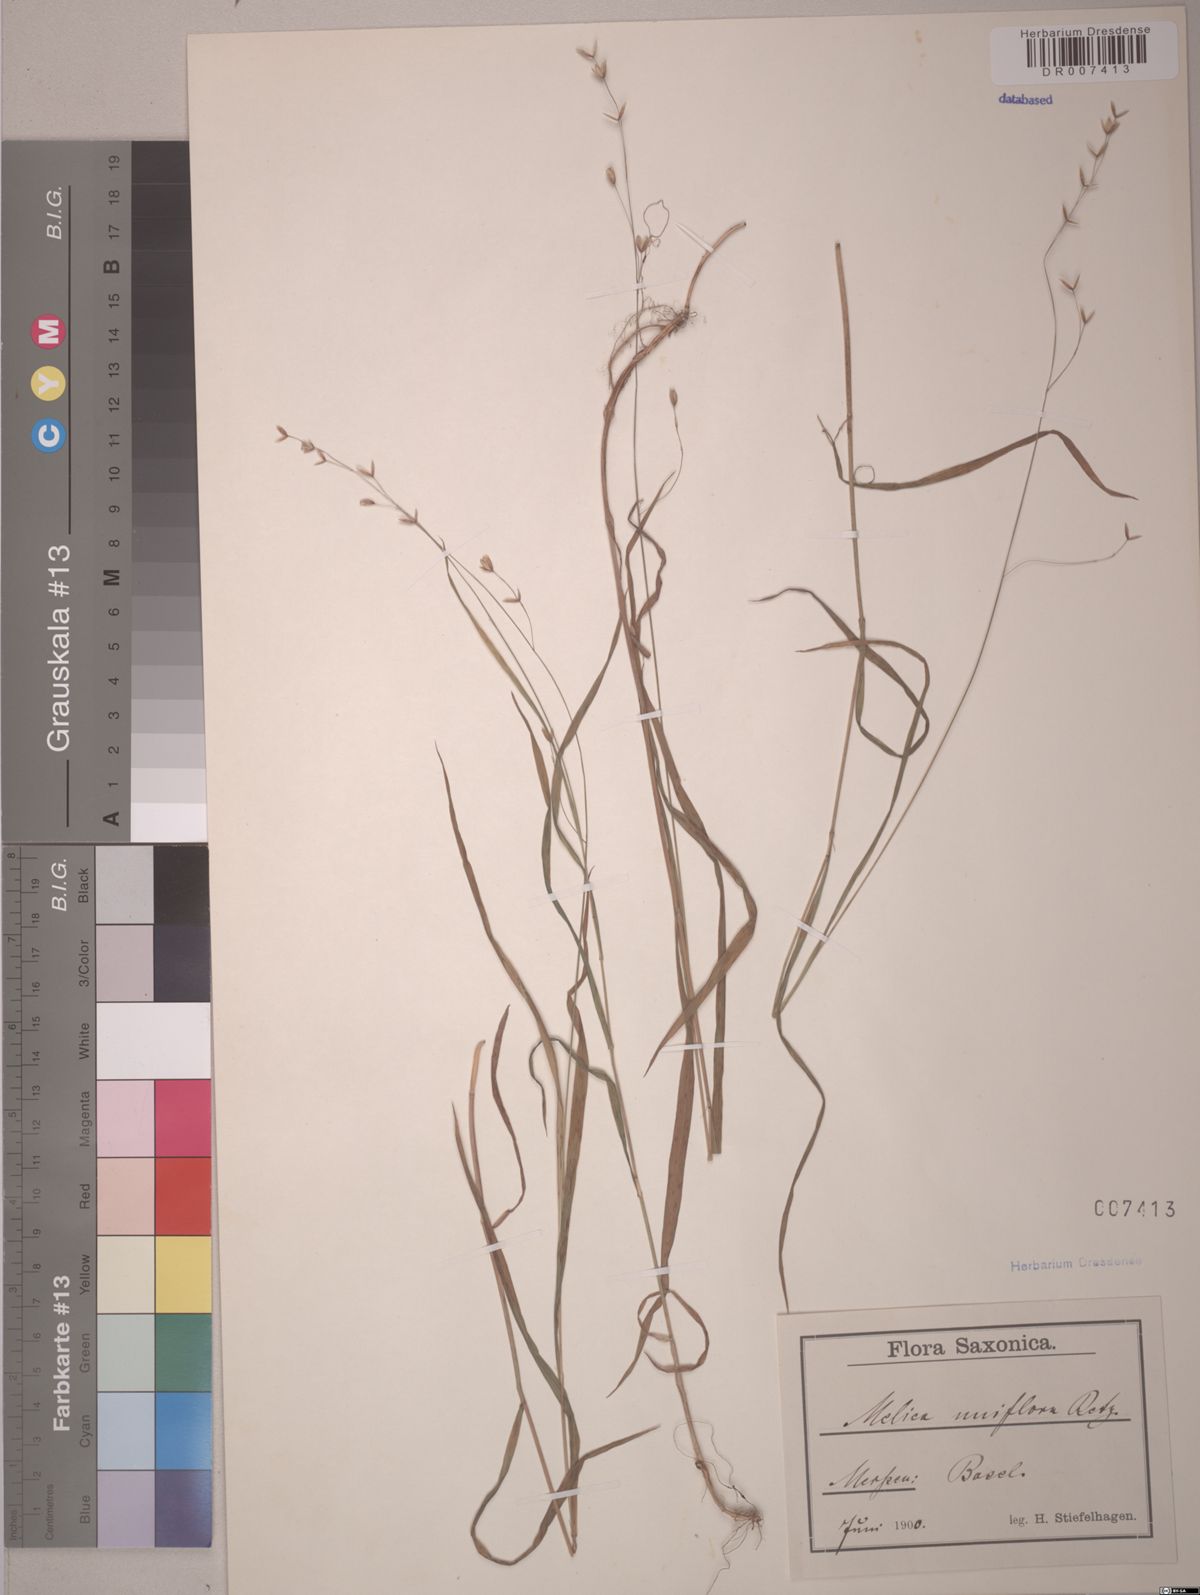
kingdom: Plantae
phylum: Tracheophyta
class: Liliopsida
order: Poales
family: Poaceae
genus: Melica
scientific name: Melica uniflora
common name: Wood melick
